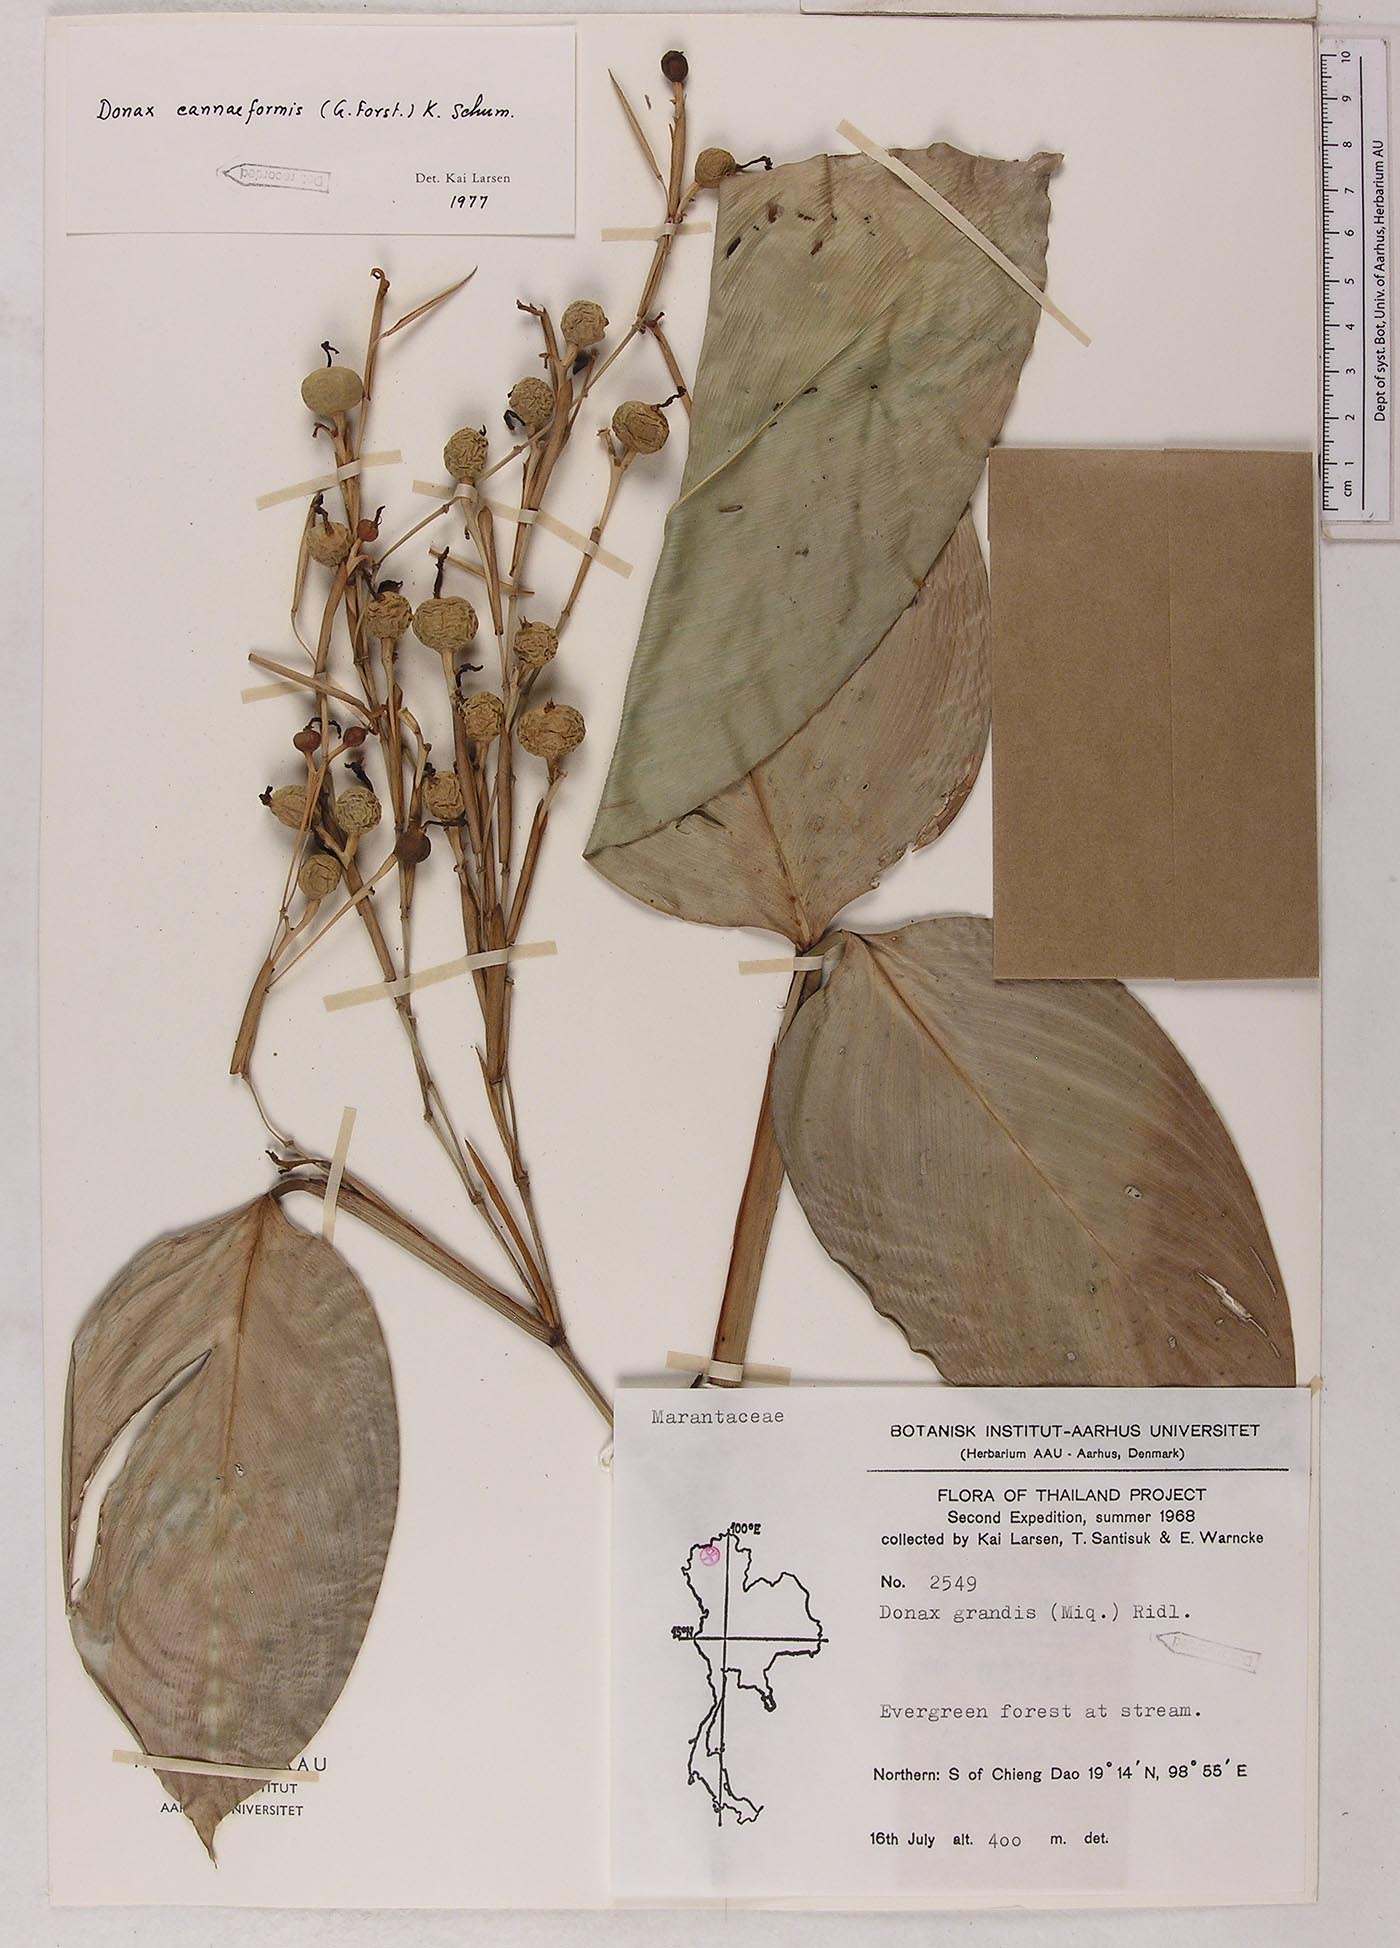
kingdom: Plantae
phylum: Tracheophyta
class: Liliopsida
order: Zingiberales
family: Marantaceae
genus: Donax
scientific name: Donax canniformis
